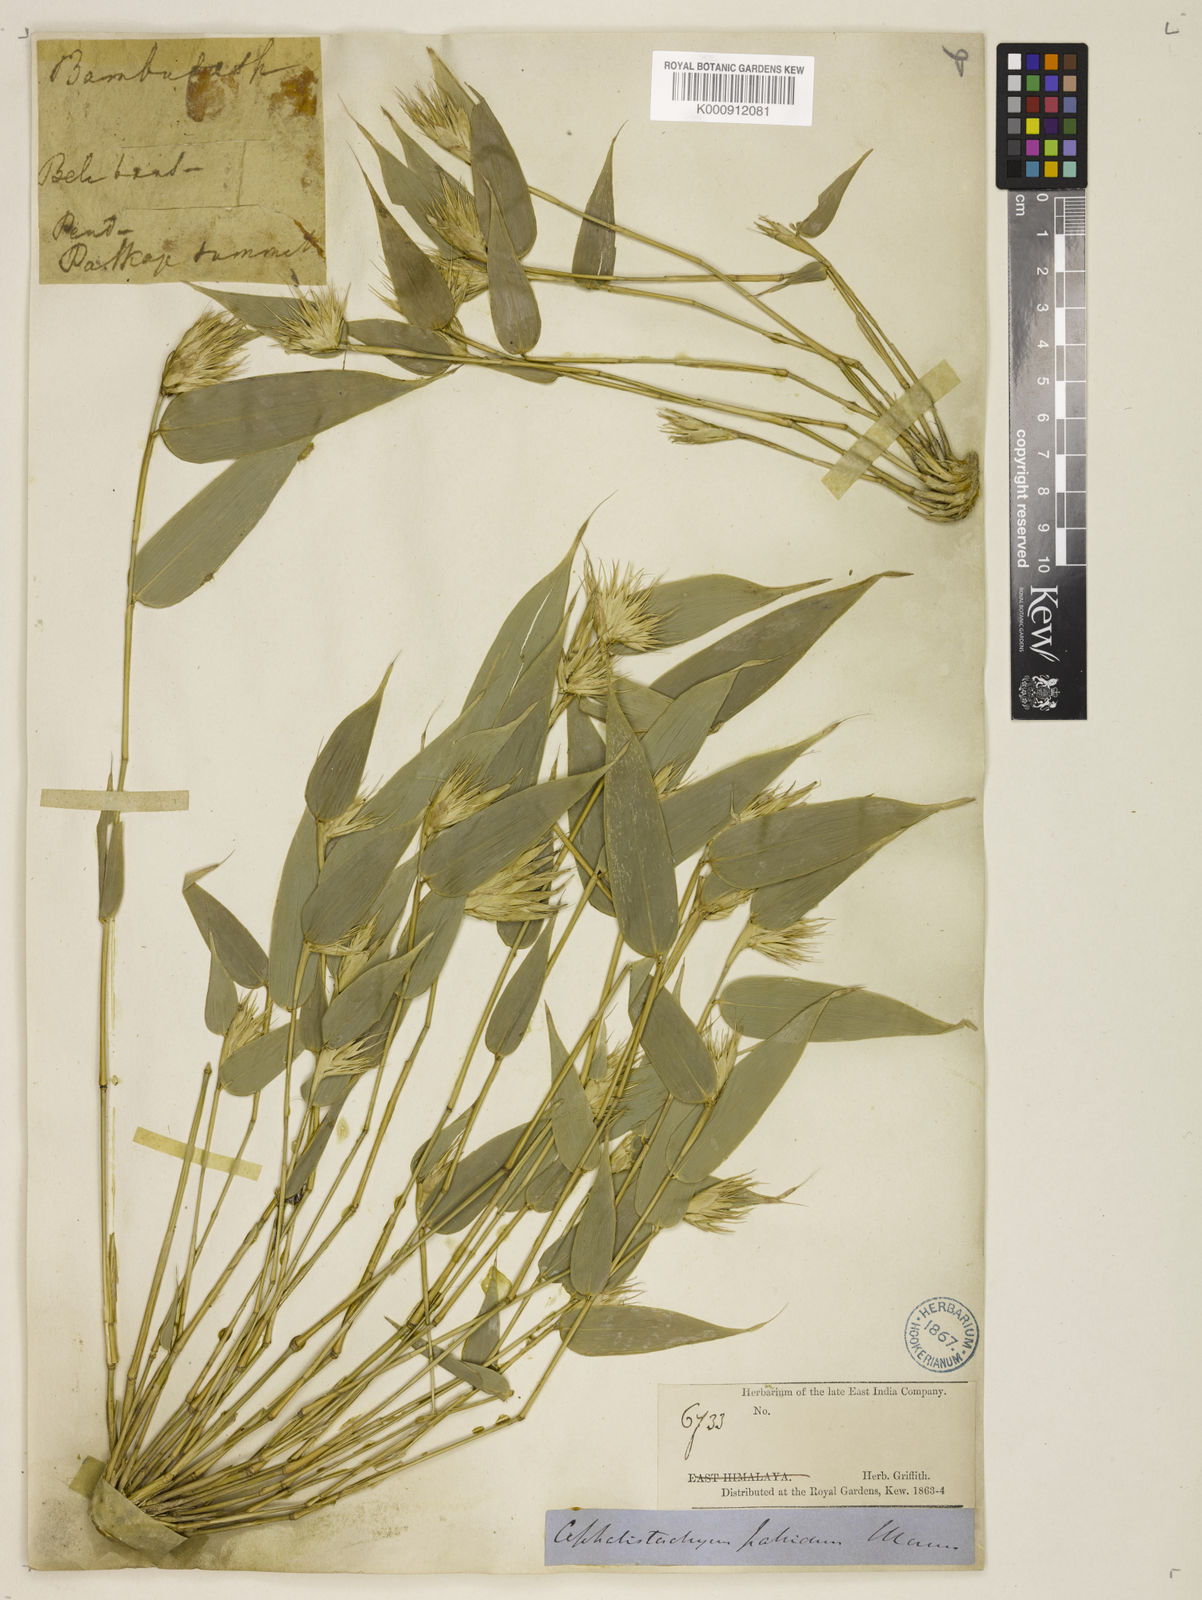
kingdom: Plantae
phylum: Tracheophyta
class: Liliopsida
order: Poales
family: Poaceae
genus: Cephalostachyum
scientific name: Cephalostachyum pallidum
